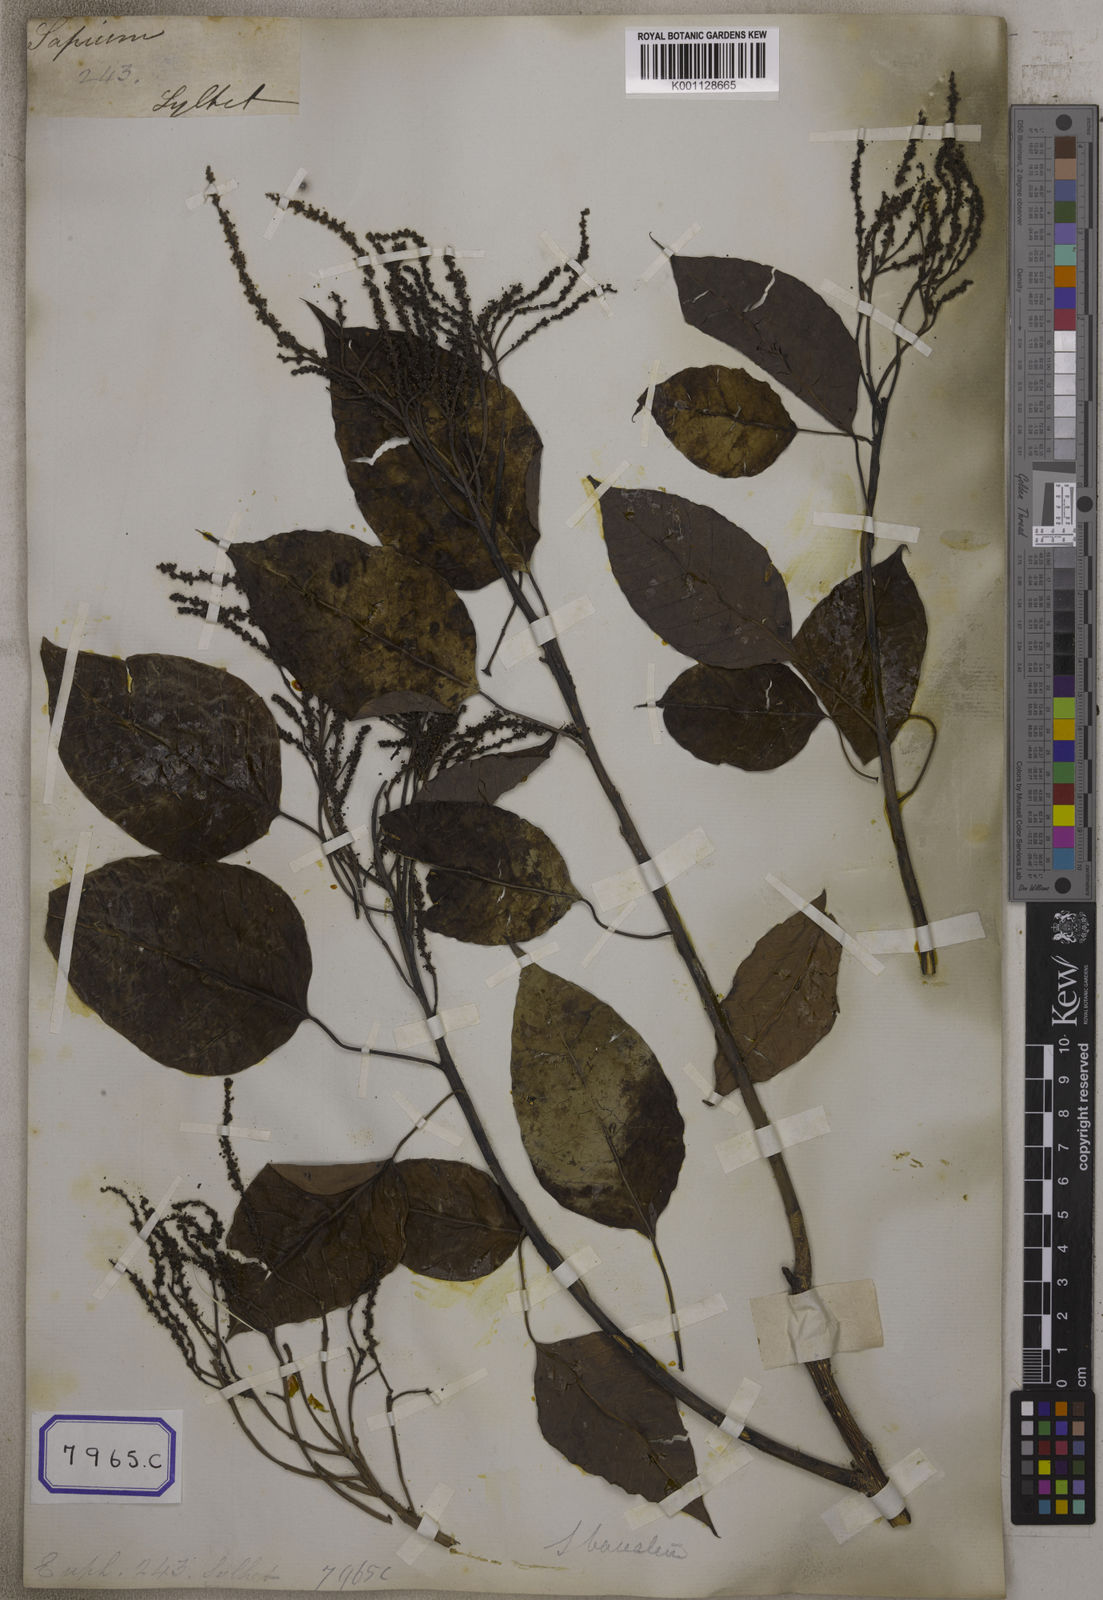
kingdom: Plantae
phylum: Tracheophyta
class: Magnoliopsida
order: Malpighiales
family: Euphorbiaceae
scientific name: Euphorbiaceae
